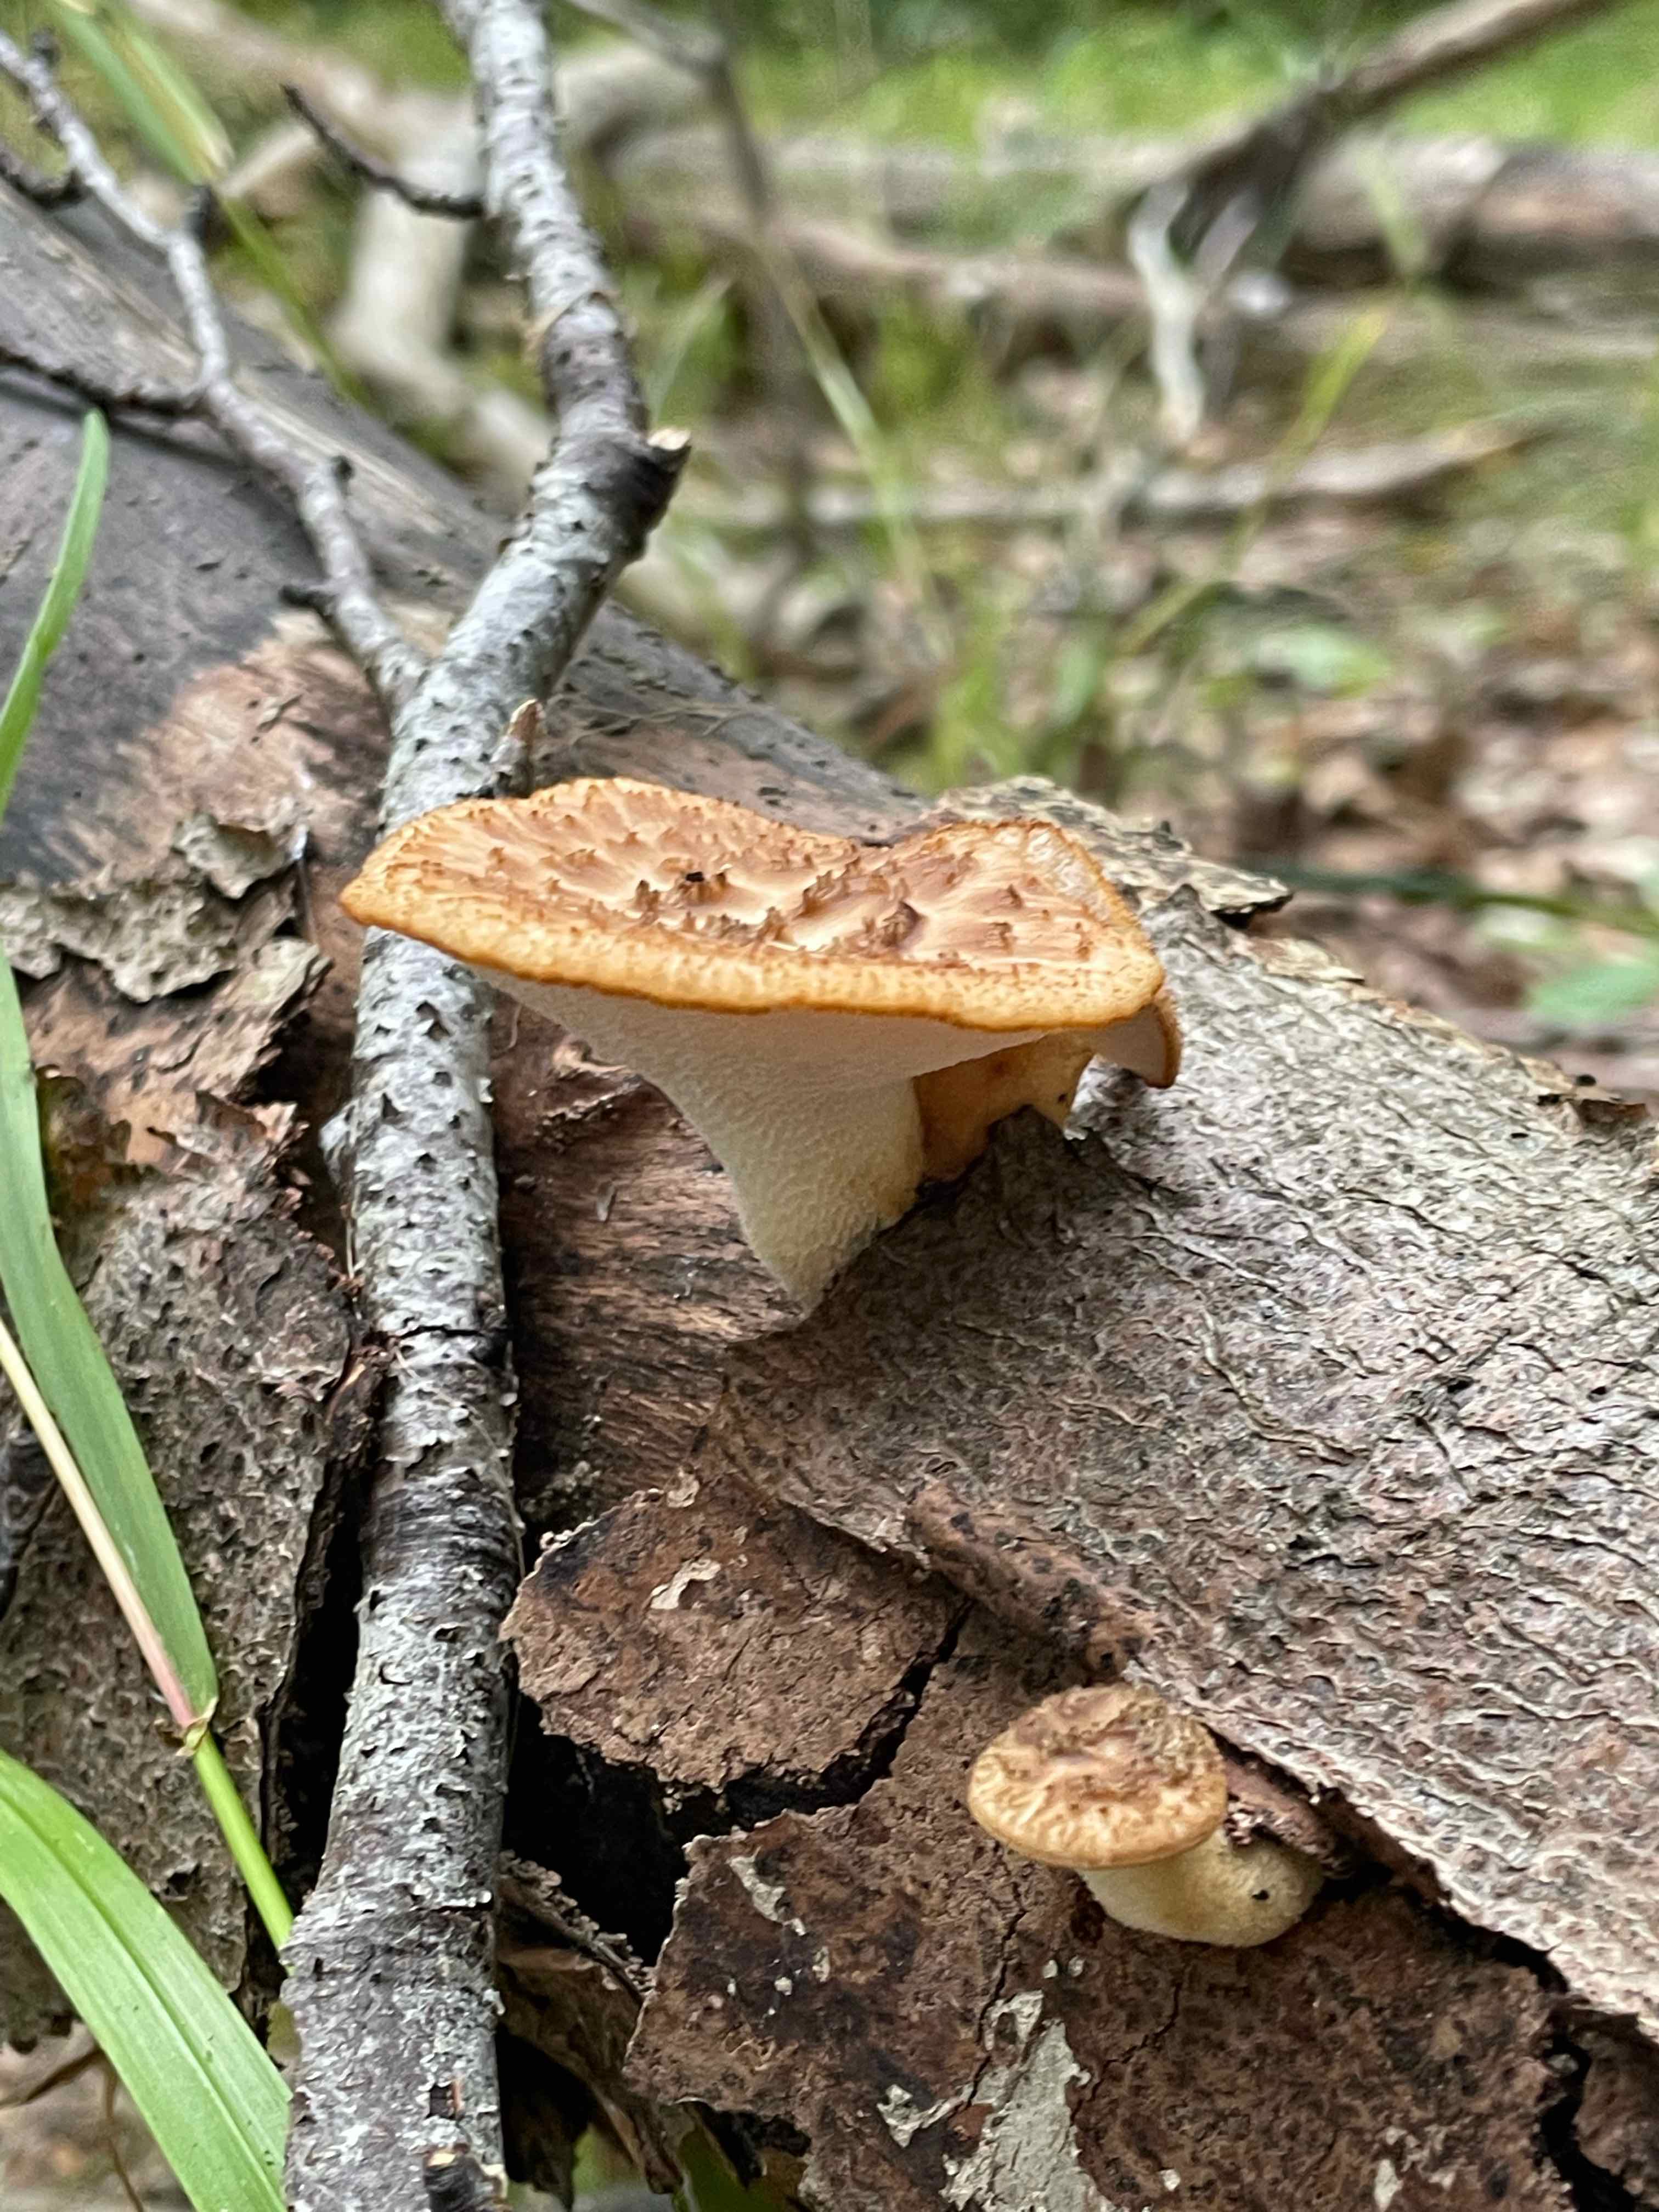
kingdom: Fungi
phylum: Basidiomycota
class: Agaricomycetes
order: Polyporales
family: Polyporaceae
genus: Polyporus
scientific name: Polyporus tuberaster
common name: knoldet stilkporesvamp
